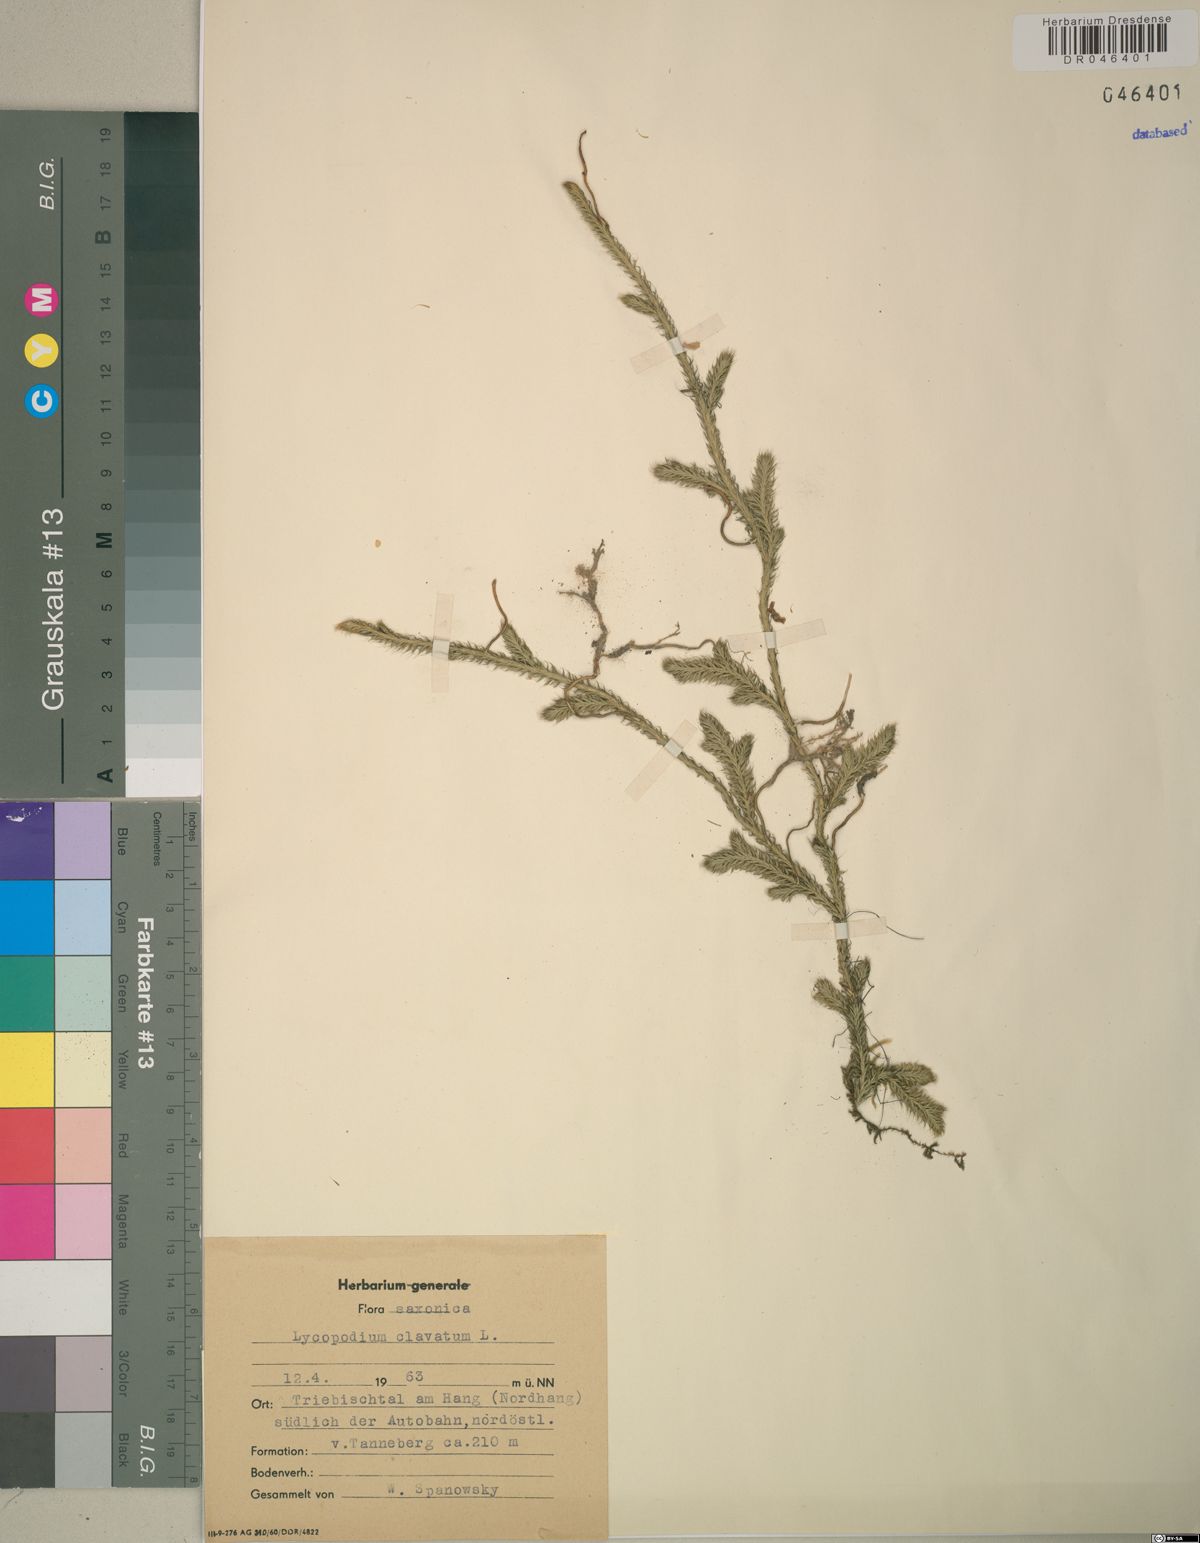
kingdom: Plantae
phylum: Tracheophyta
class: Lycopodiopsida
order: Lycopodiales
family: Lycopodiaceae
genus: Lycopodium
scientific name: Lycopodium clavatum
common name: Stag's-horn clubmoss
